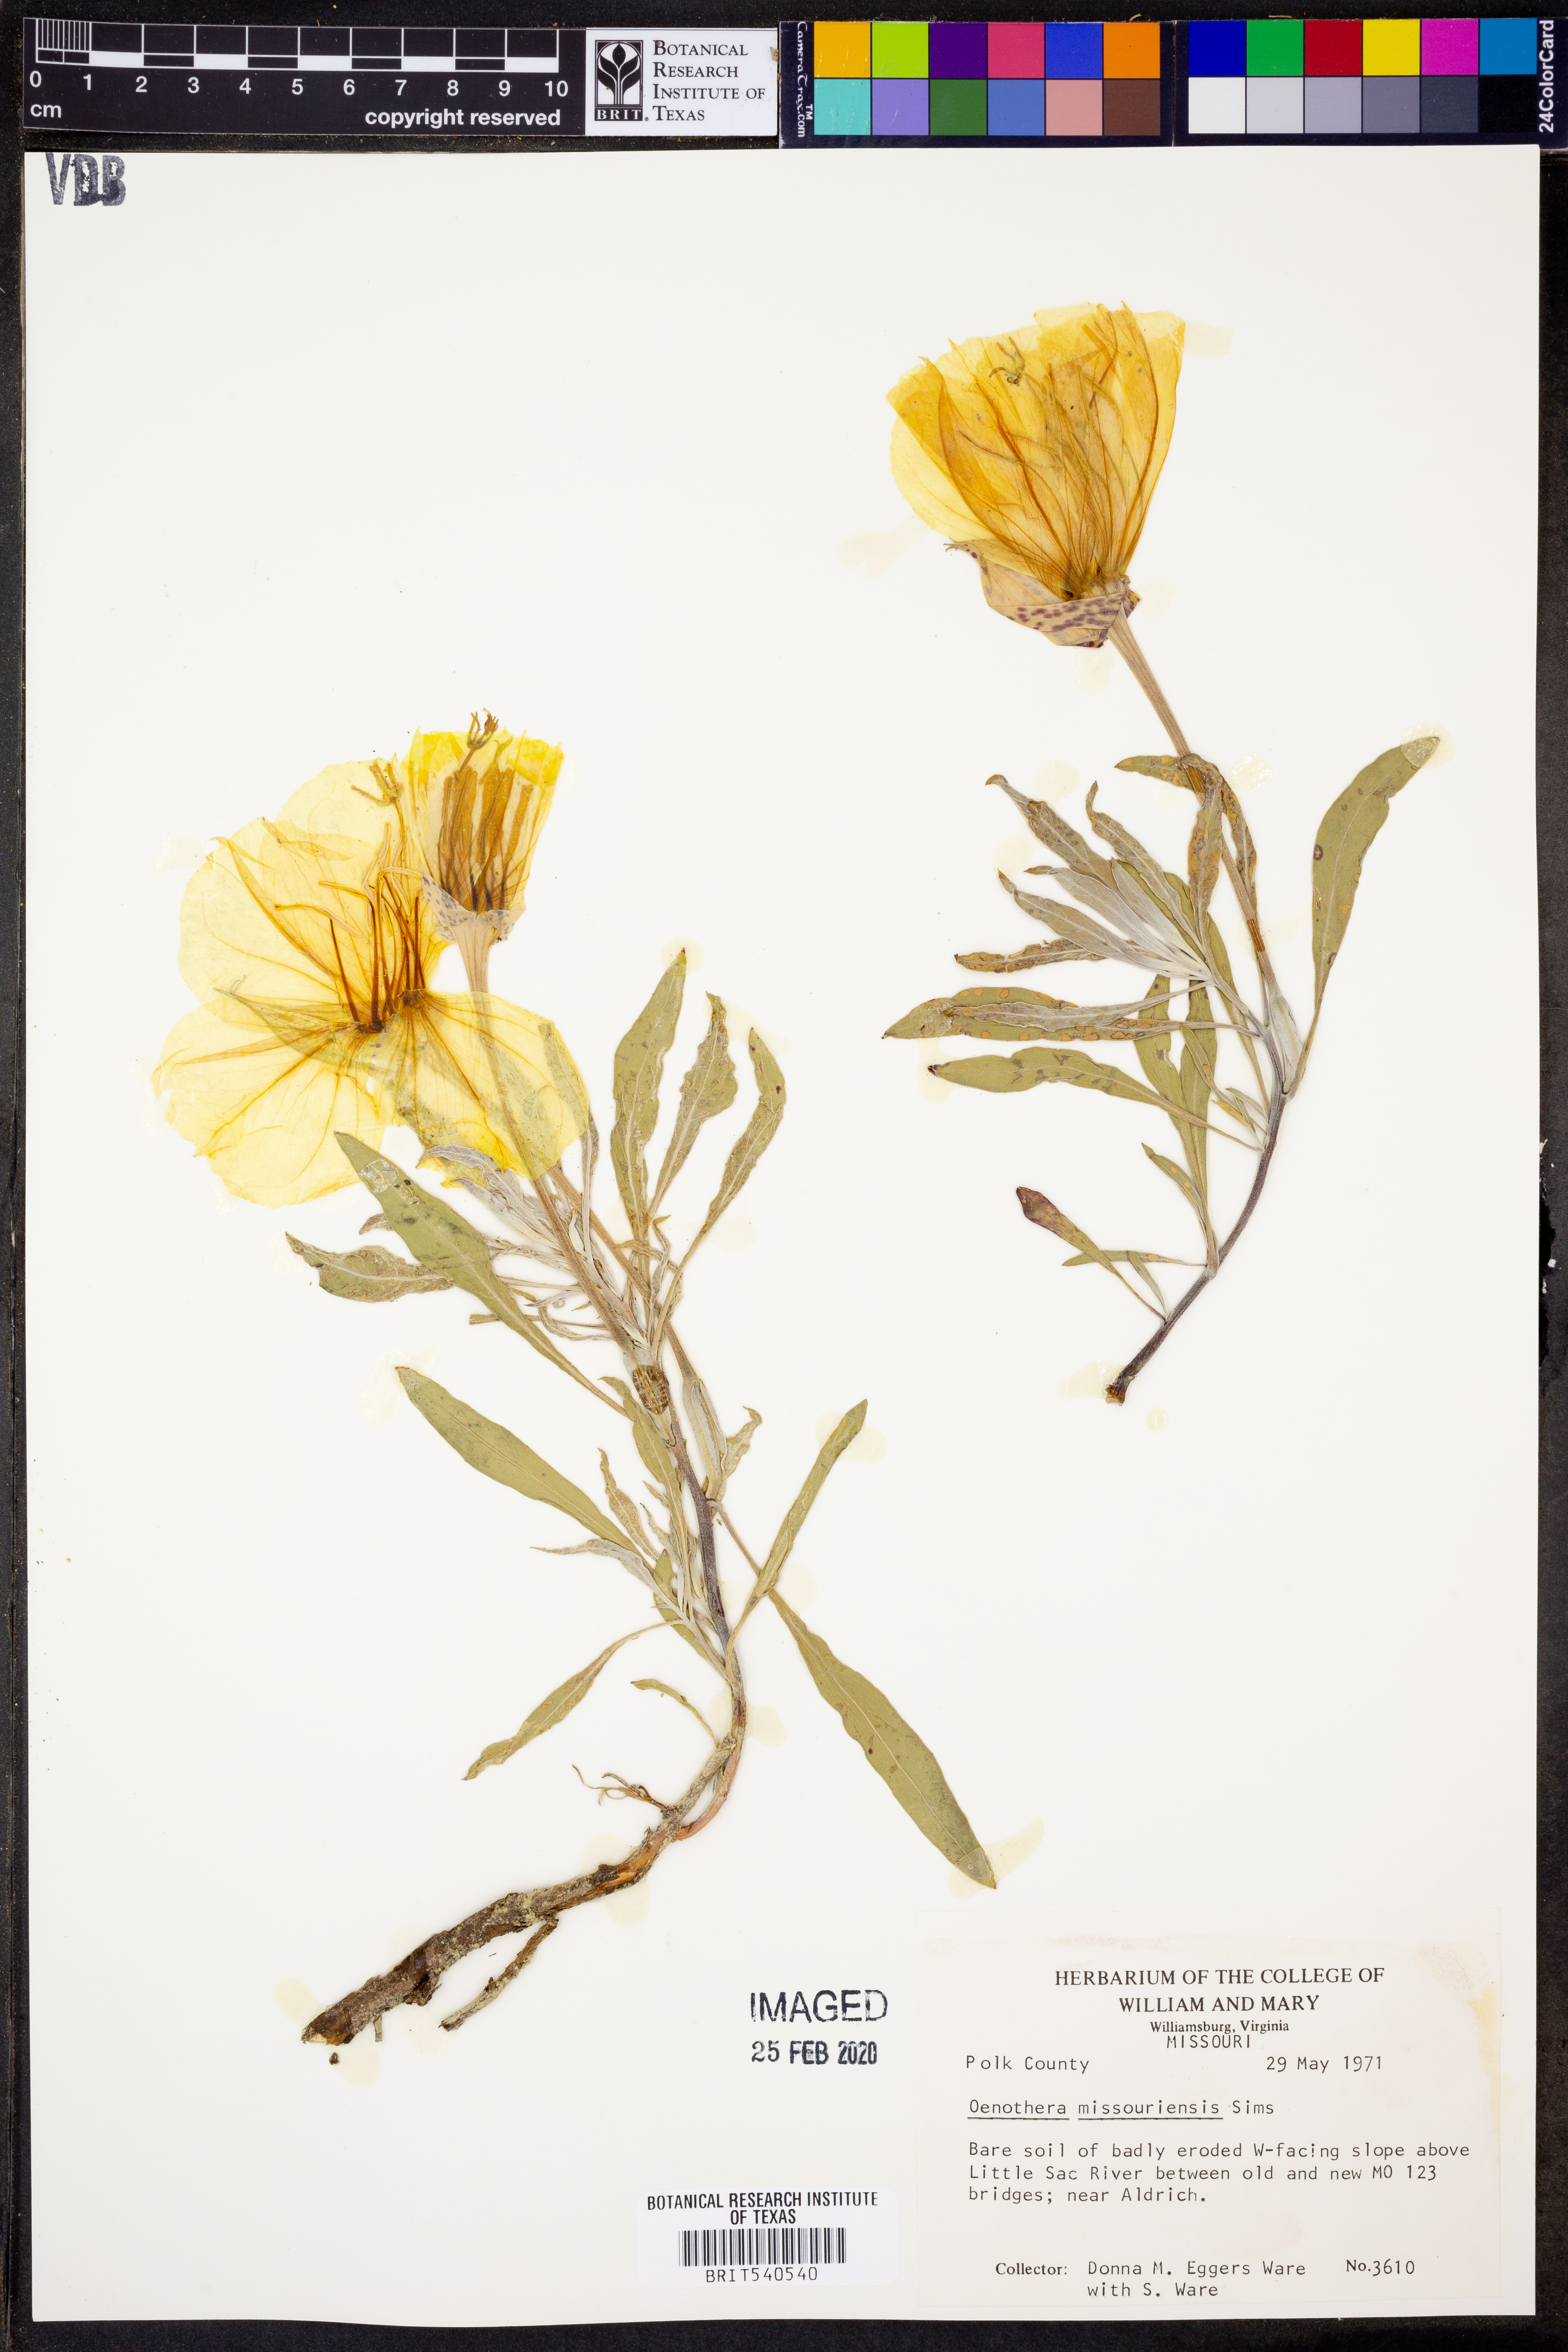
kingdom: Plantae
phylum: Tracheophyta
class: Magnoliopsida
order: Myrtales
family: Onagraceae
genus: Oenothera
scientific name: Oenothera macrocarpa
